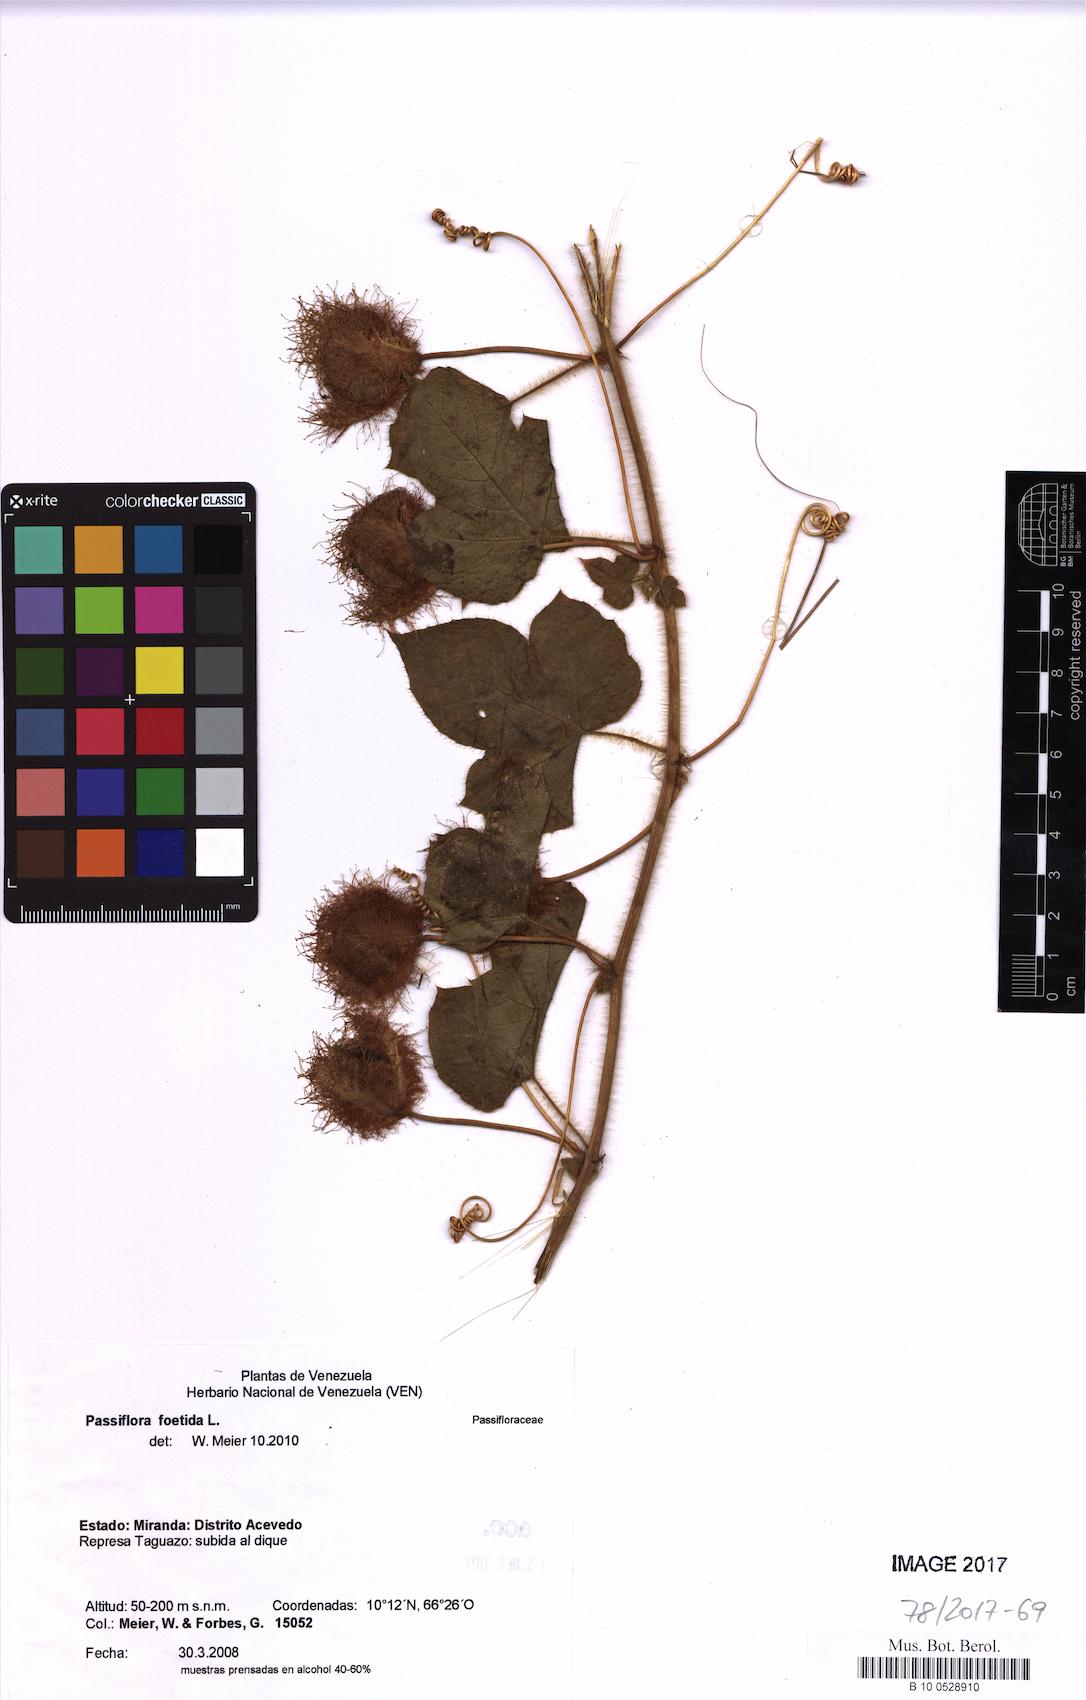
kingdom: Plantae
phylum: Tracheophyta
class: Magnoliopsida
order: Malpighiales
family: Passifloraceae
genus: Passiflora
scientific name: Passiflora foetida
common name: Fetid passionflower
